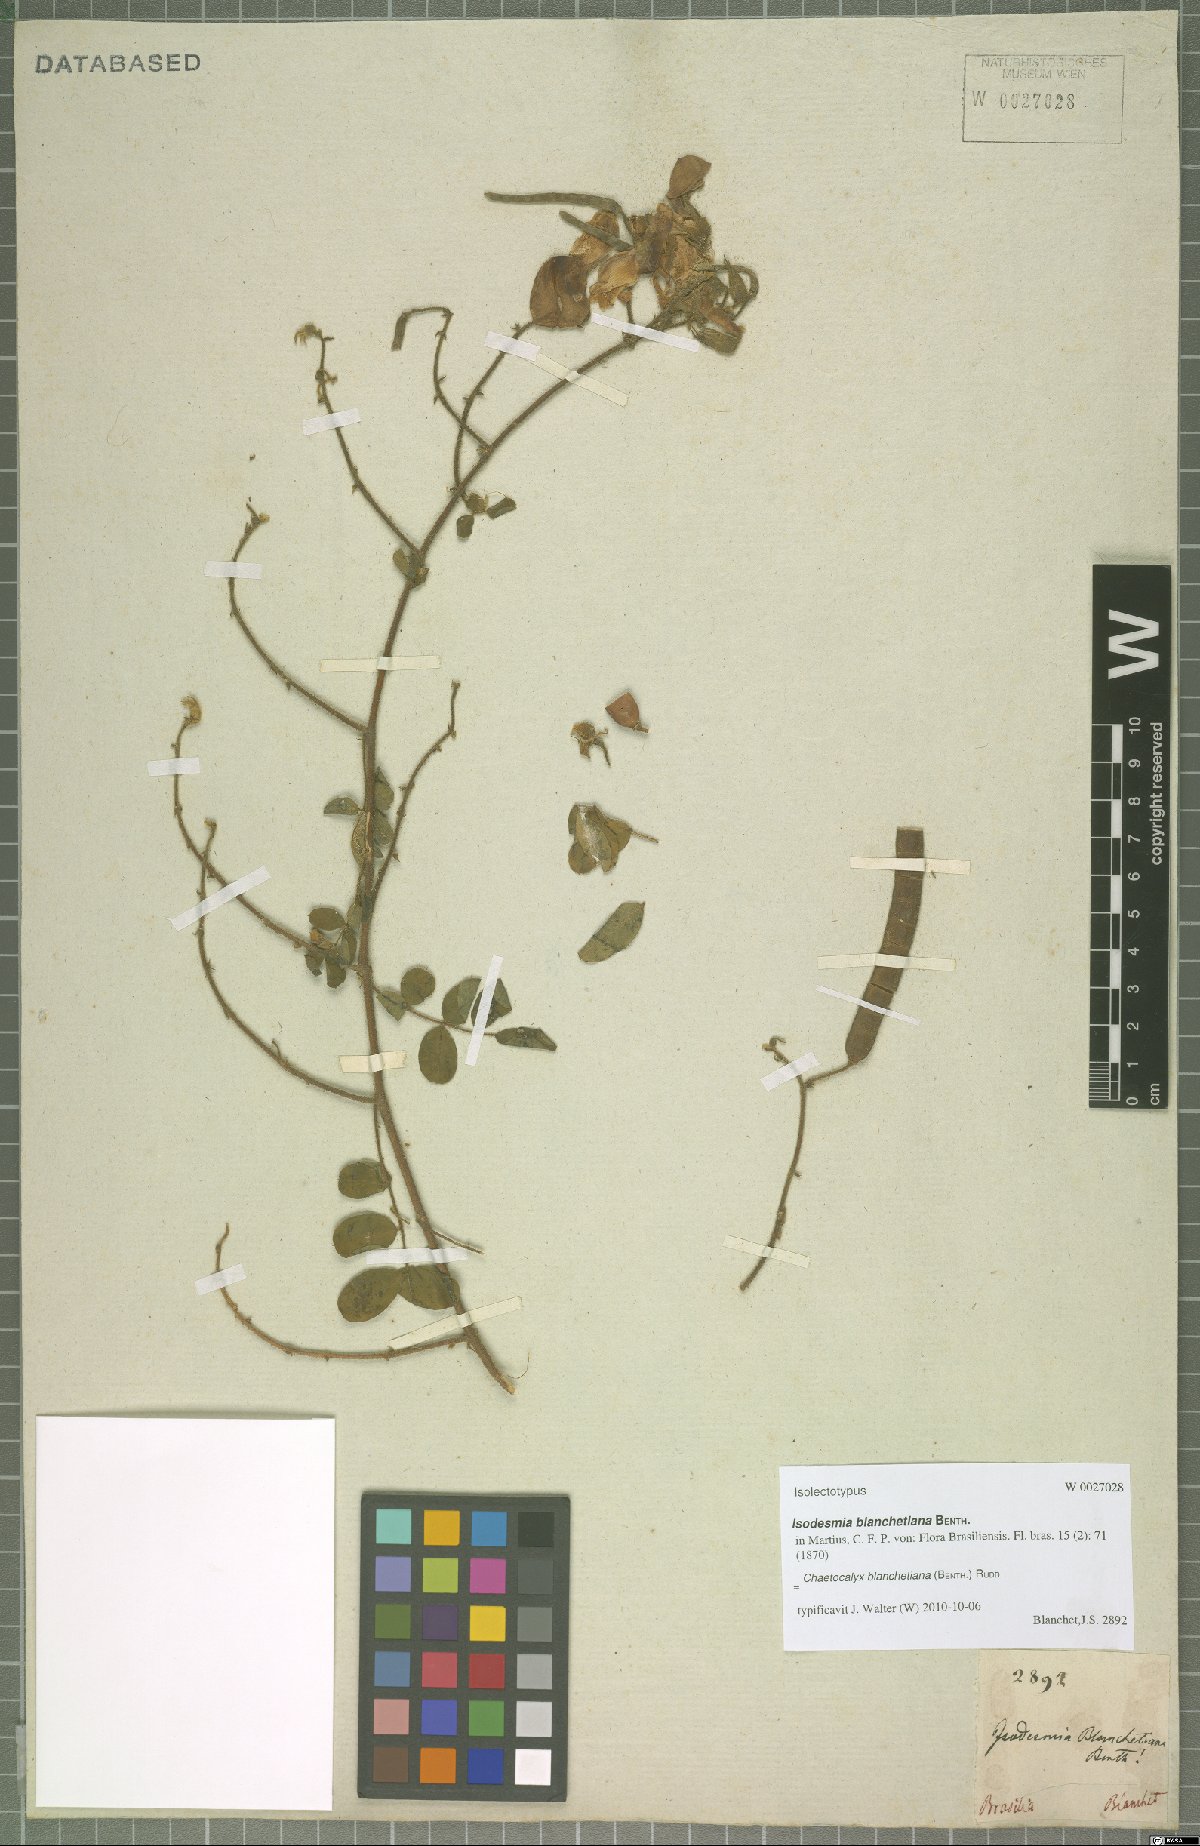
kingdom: Plantae
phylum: Tracheophyta
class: Magnoliopsida
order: Fabales
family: Fabaceae
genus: Nissolia
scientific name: Nissolia blanchetiana
